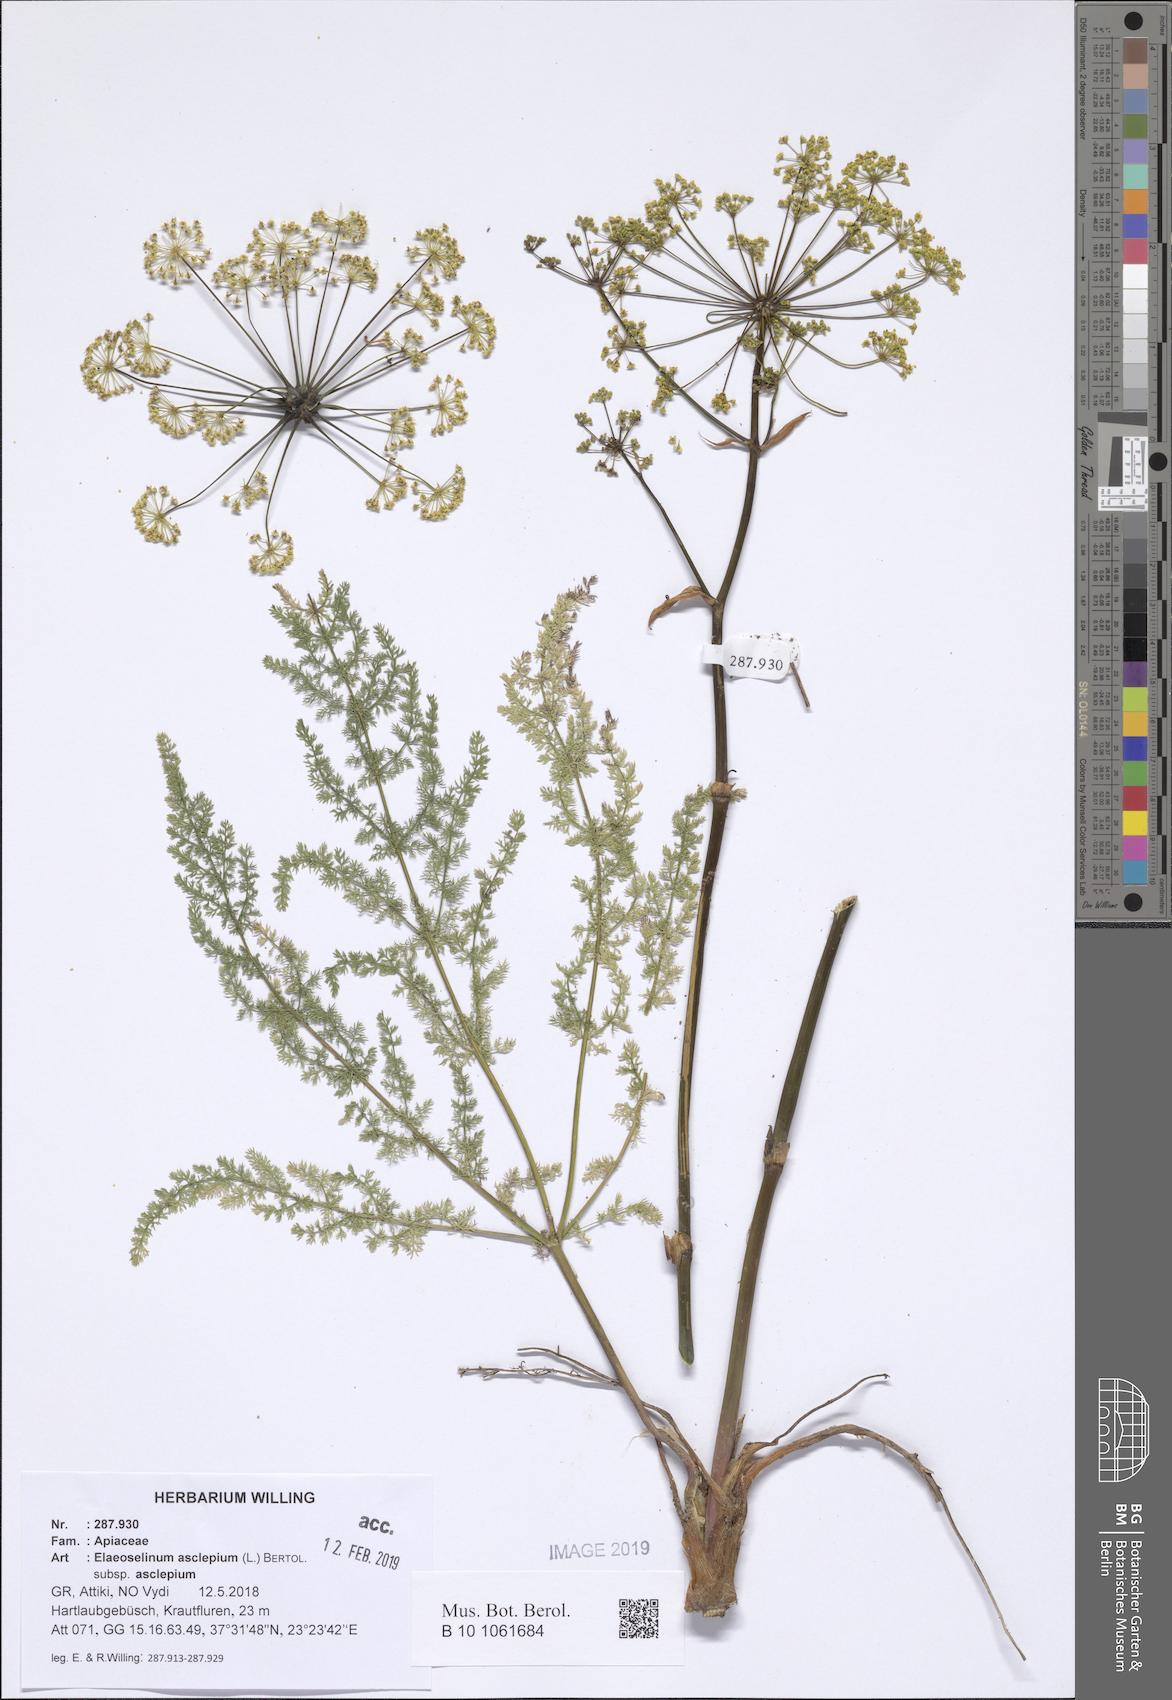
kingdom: Plantae
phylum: Tracheophyta
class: Magnoliopsida
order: Apiales
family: Apiaceae
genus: Thapsia
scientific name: Thapsia asclepium
